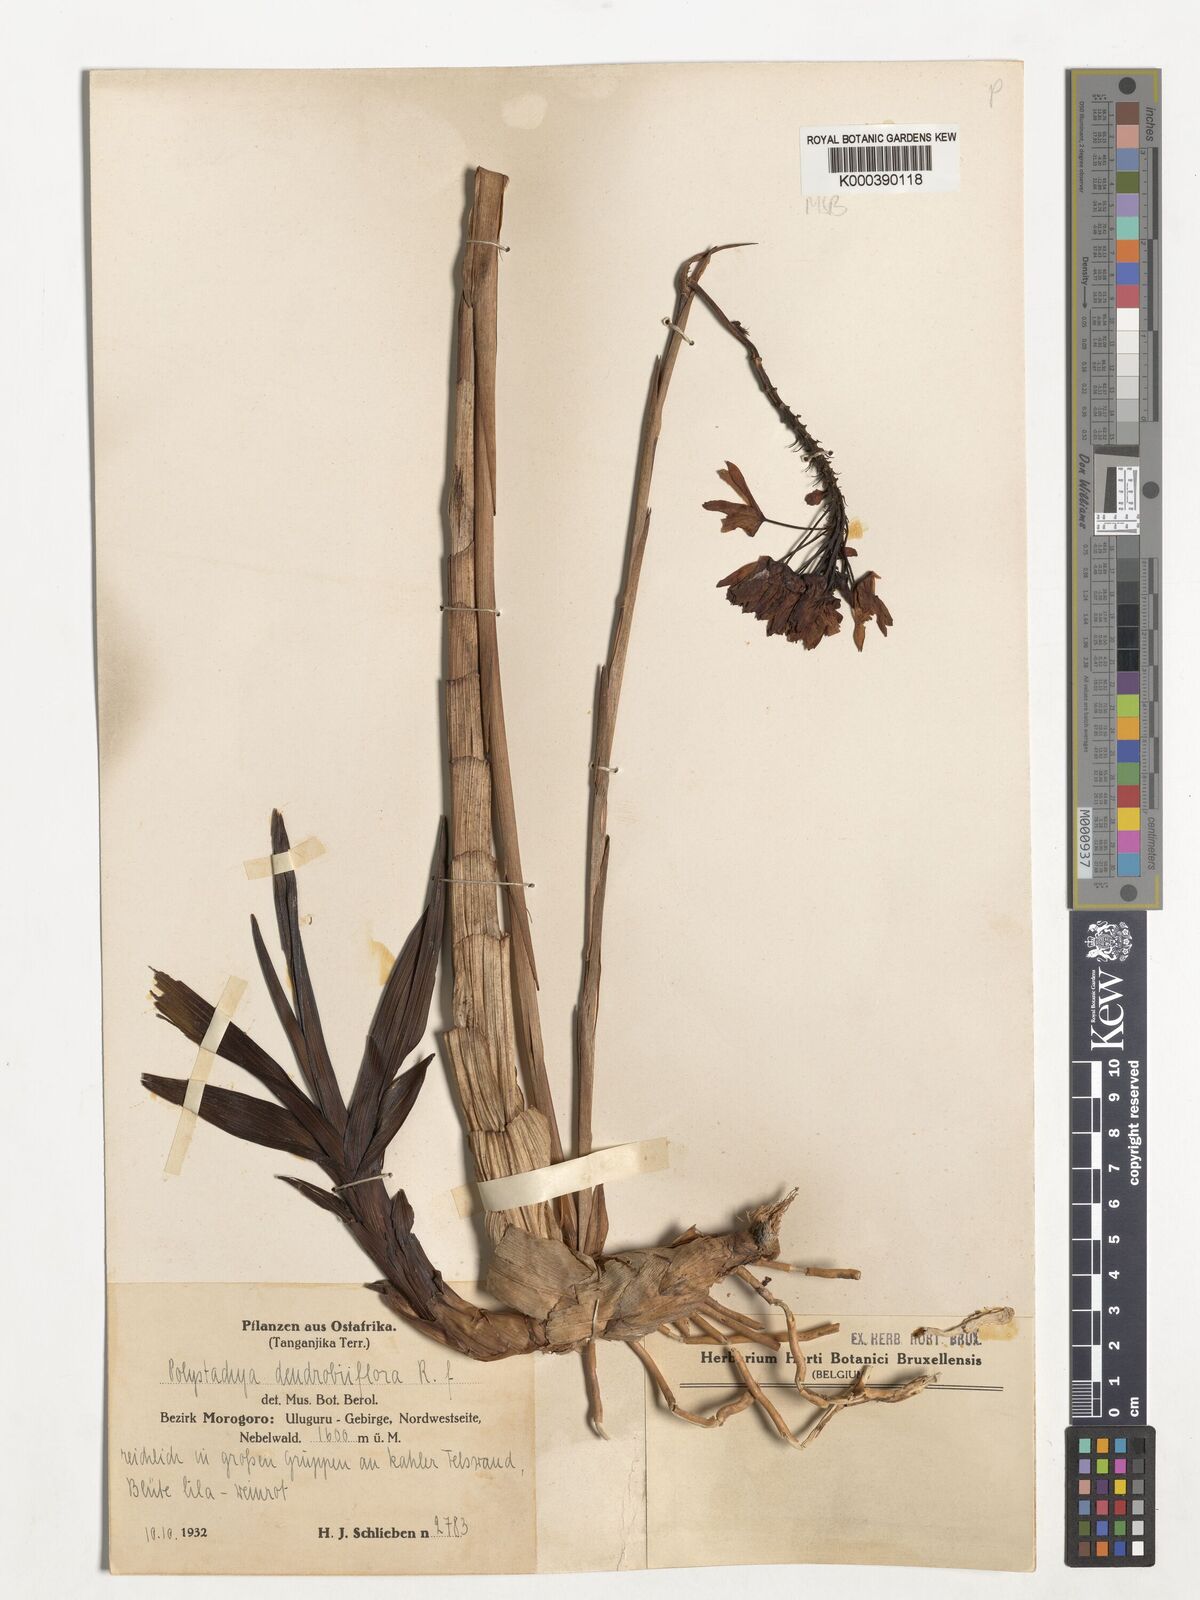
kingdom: Plantae
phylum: Tracheophyta
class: Liliopsida
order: Asparagales
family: Orchidaceae
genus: Polystachya
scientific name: Polystachya longiscapa
